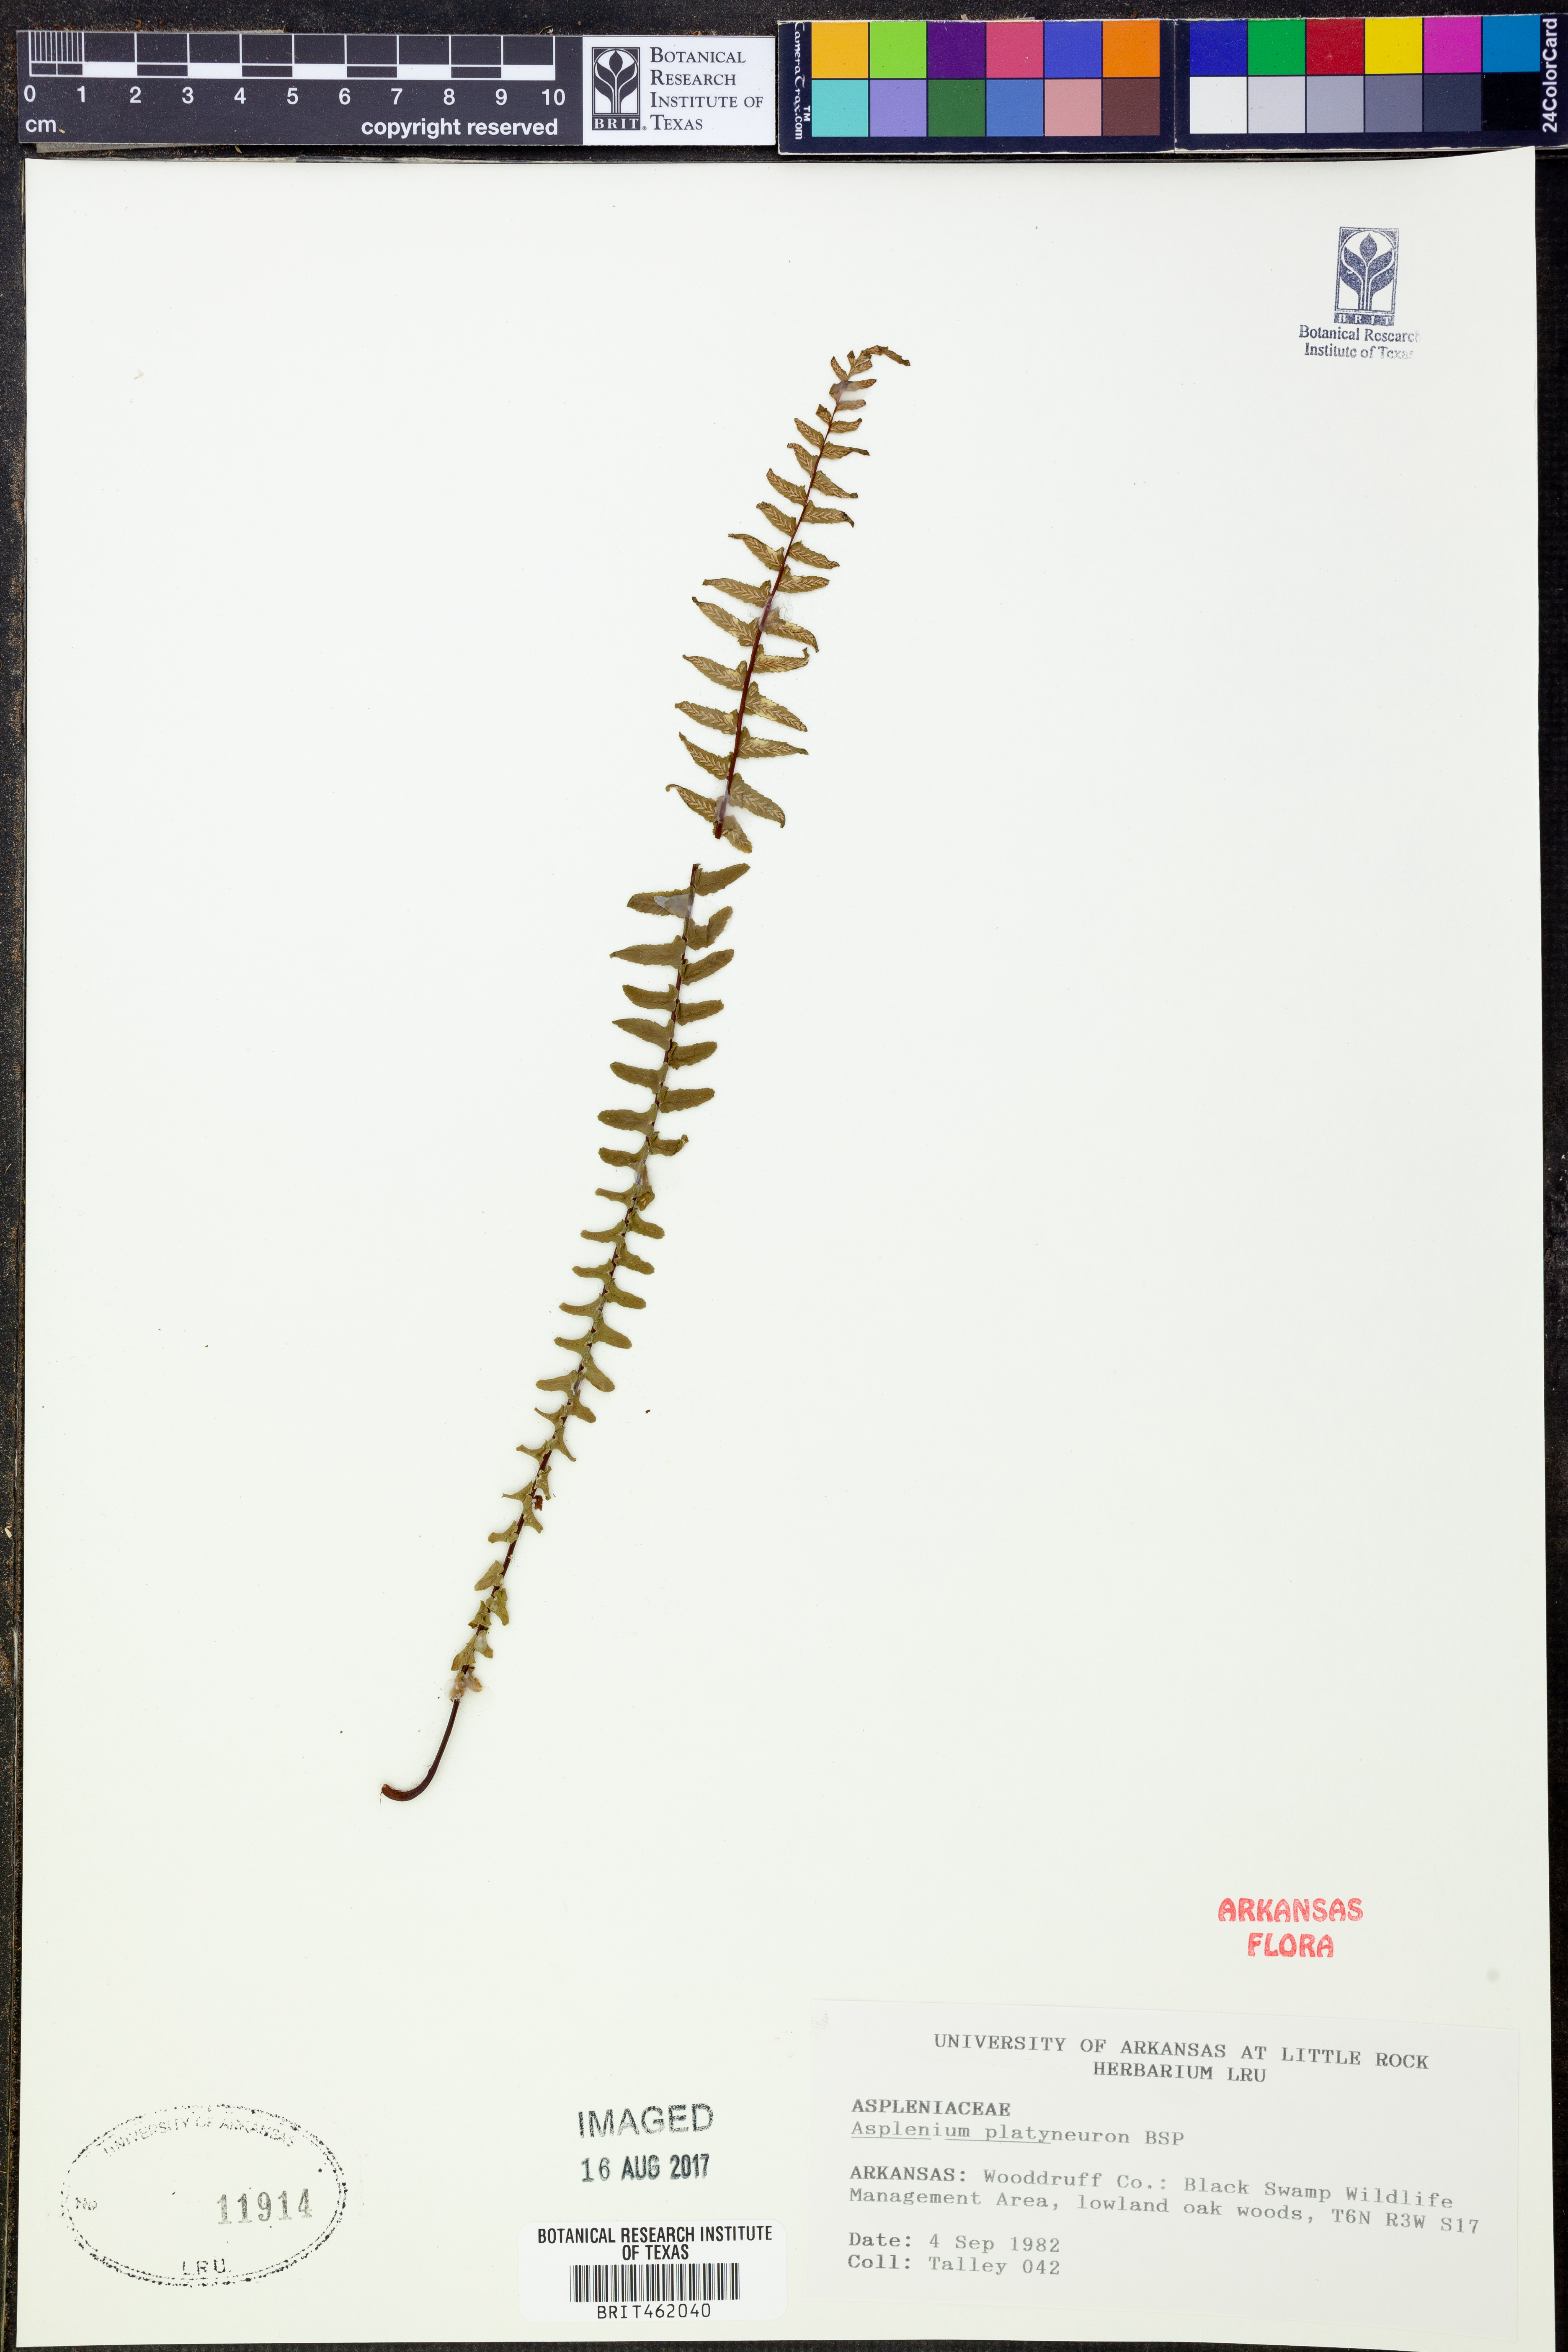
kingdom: Plantae
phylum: Tracheophyta
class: Polypodiopsida
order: Polypodiales
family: Aspleniaceae
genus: Asplenium
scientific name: Asplenium platyneuron
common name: Ebony spleenwort
